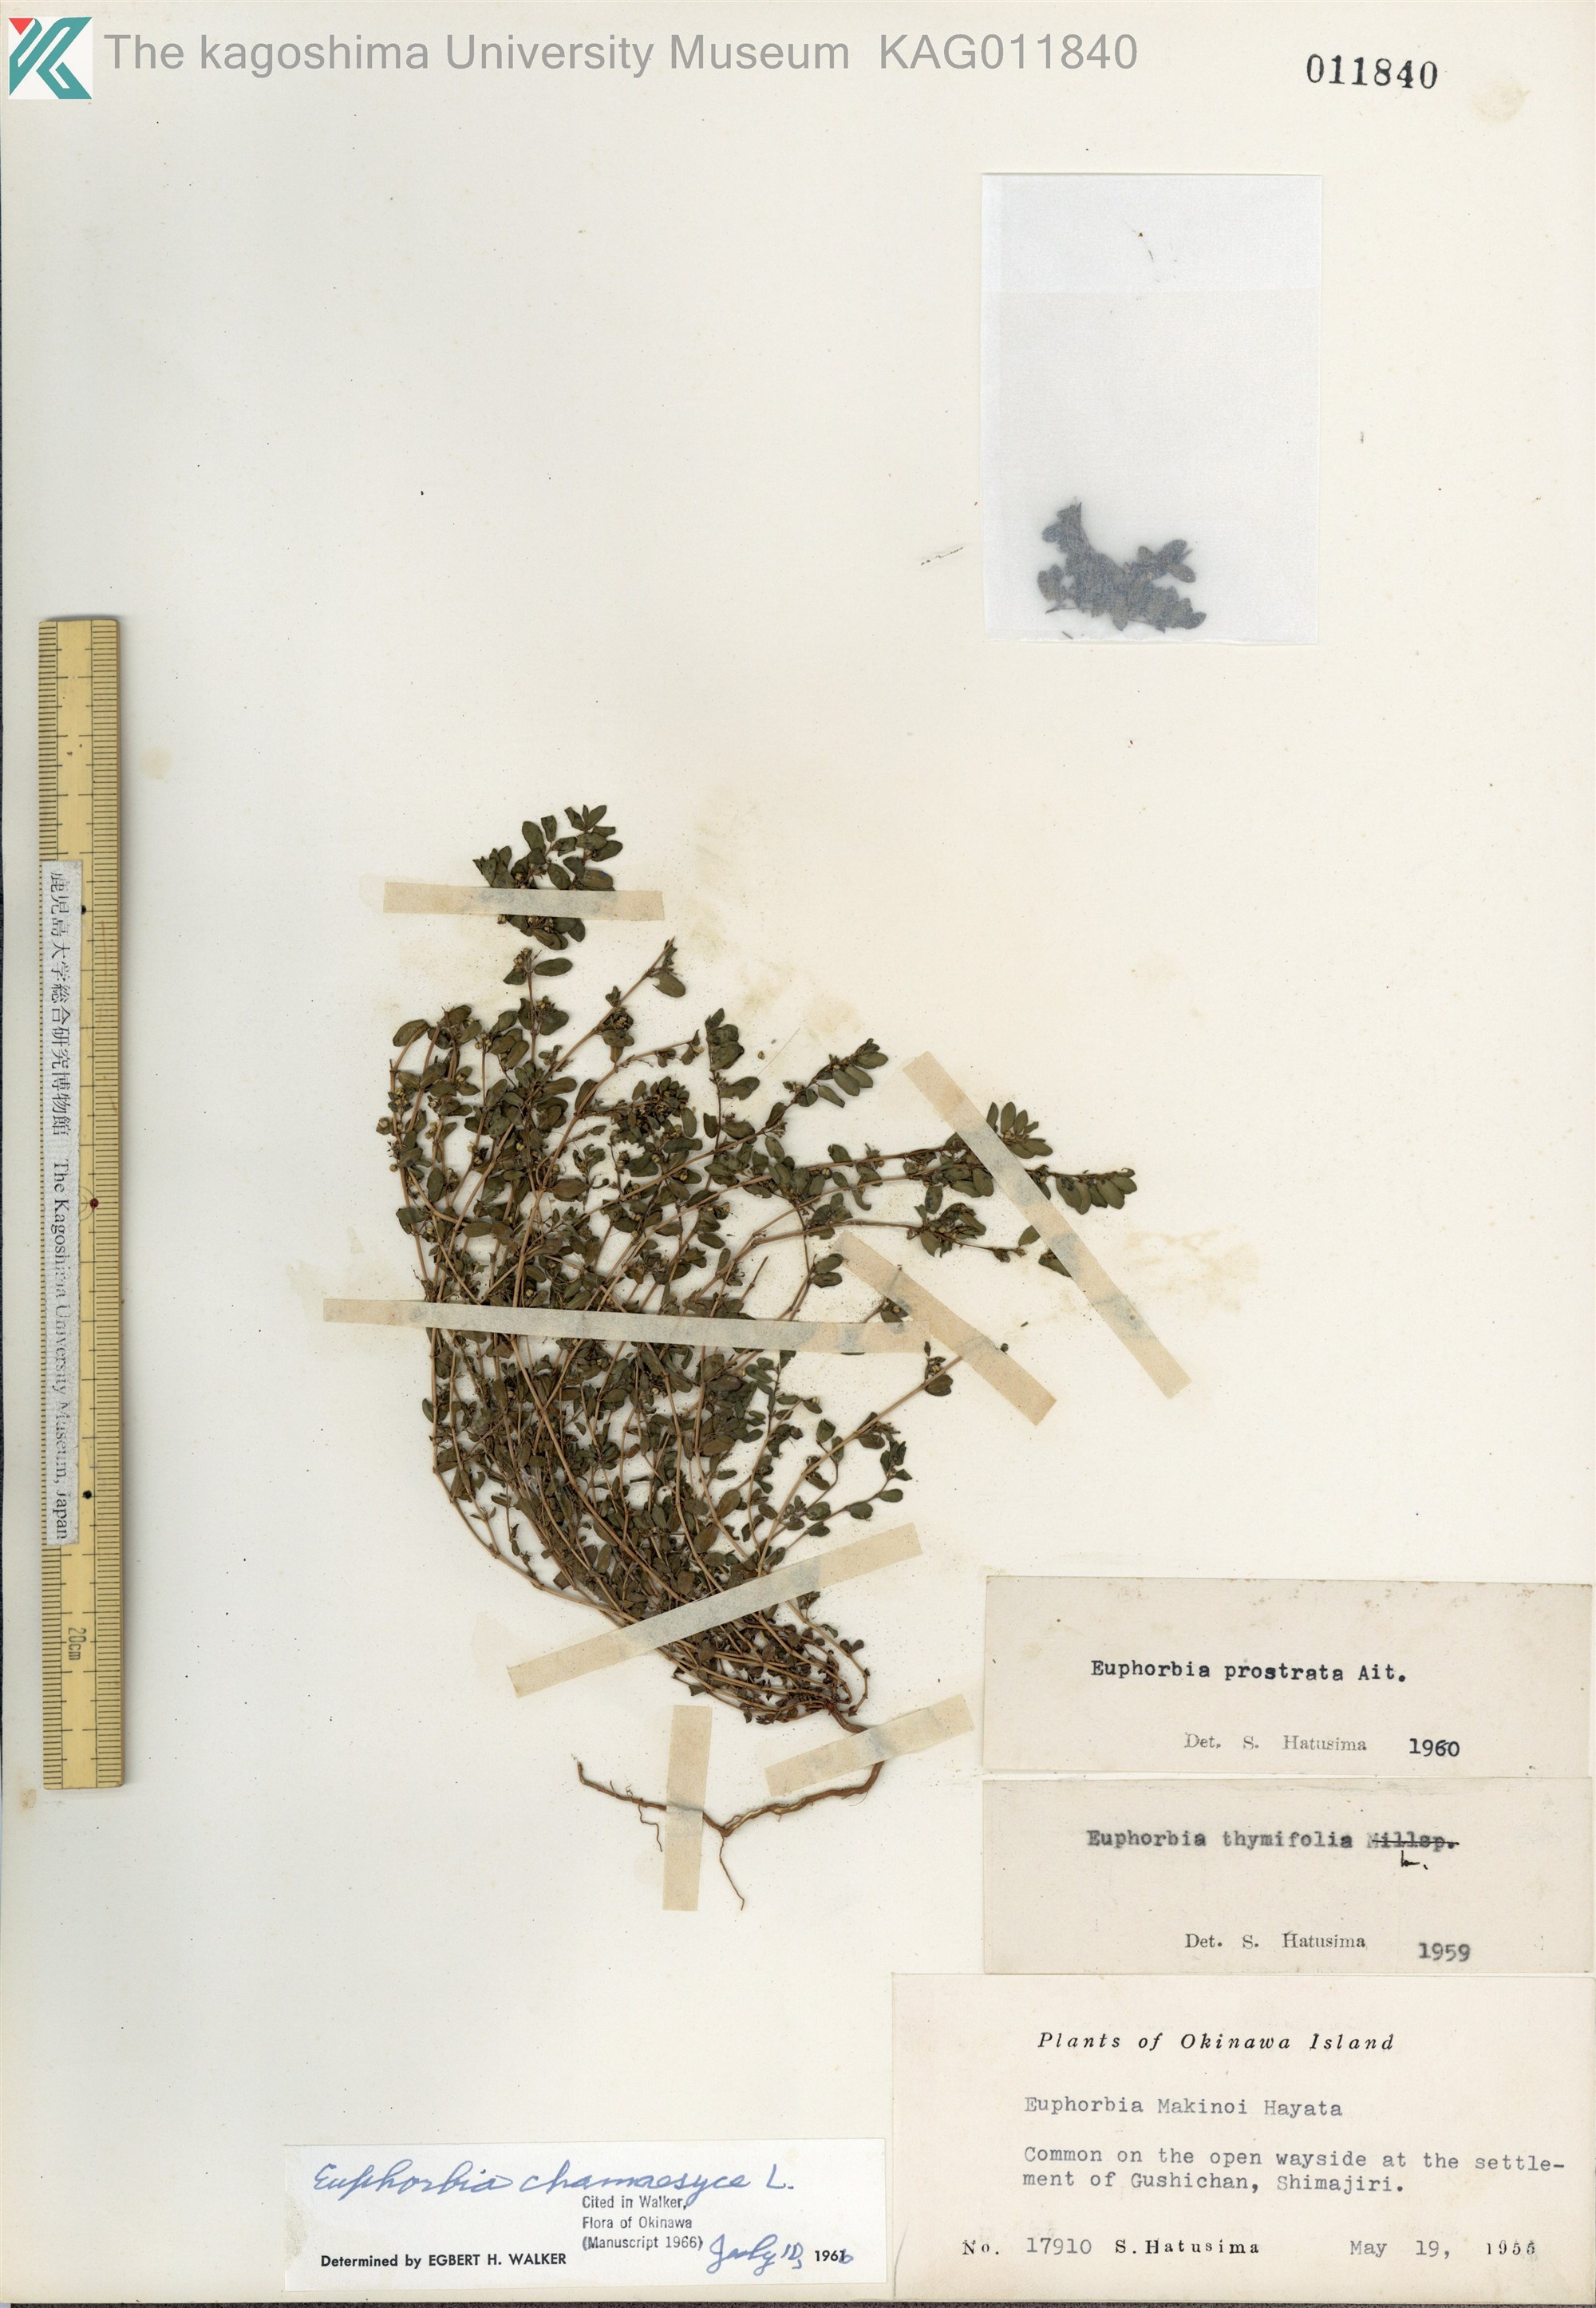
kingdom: Plantae
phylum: Tracheophyta
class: Magnoliopsida
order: Malpighiales
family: Euphorbiaceae
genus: Euphorbia
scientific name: Euphorbia prostrata
